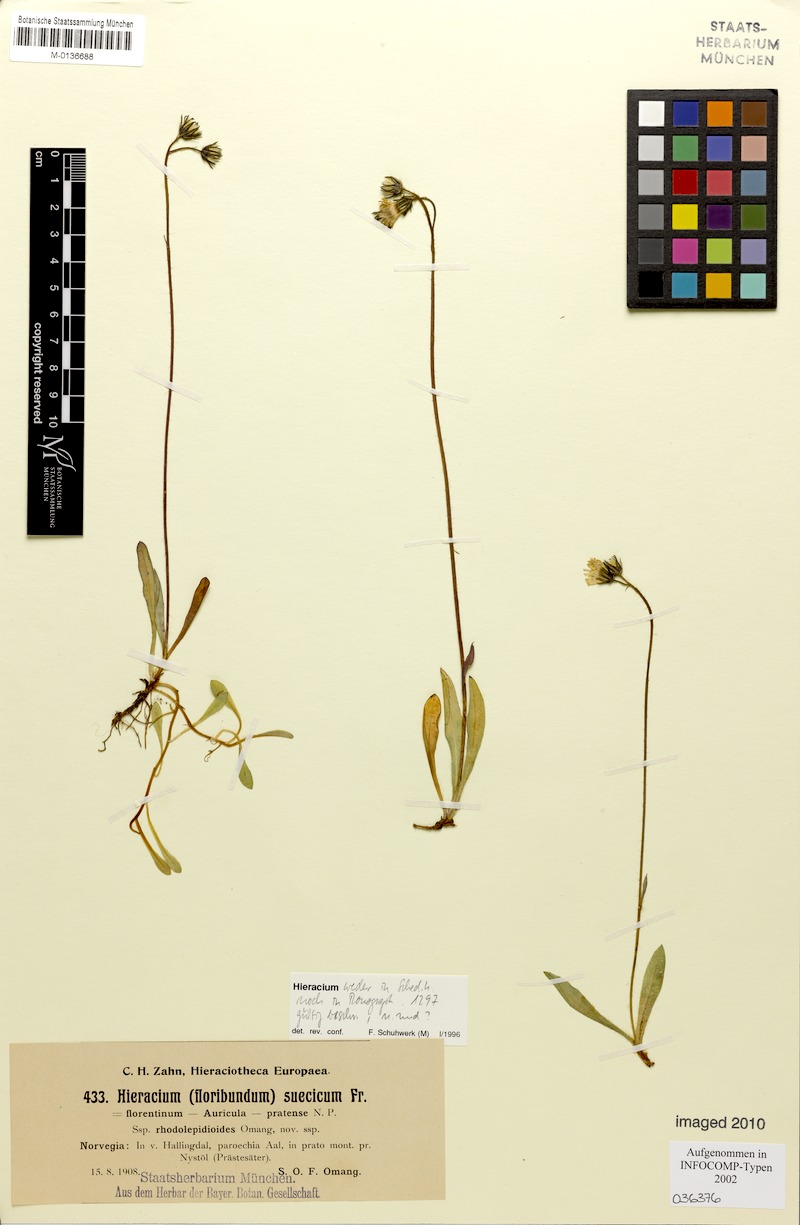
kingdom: Plantae
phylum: Tracheophyta
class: Magnoliopsida
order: Asterales
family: Asteraceae
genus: Pilosella
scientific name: Pilosella floribunda
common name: Glaucous hawkweed
